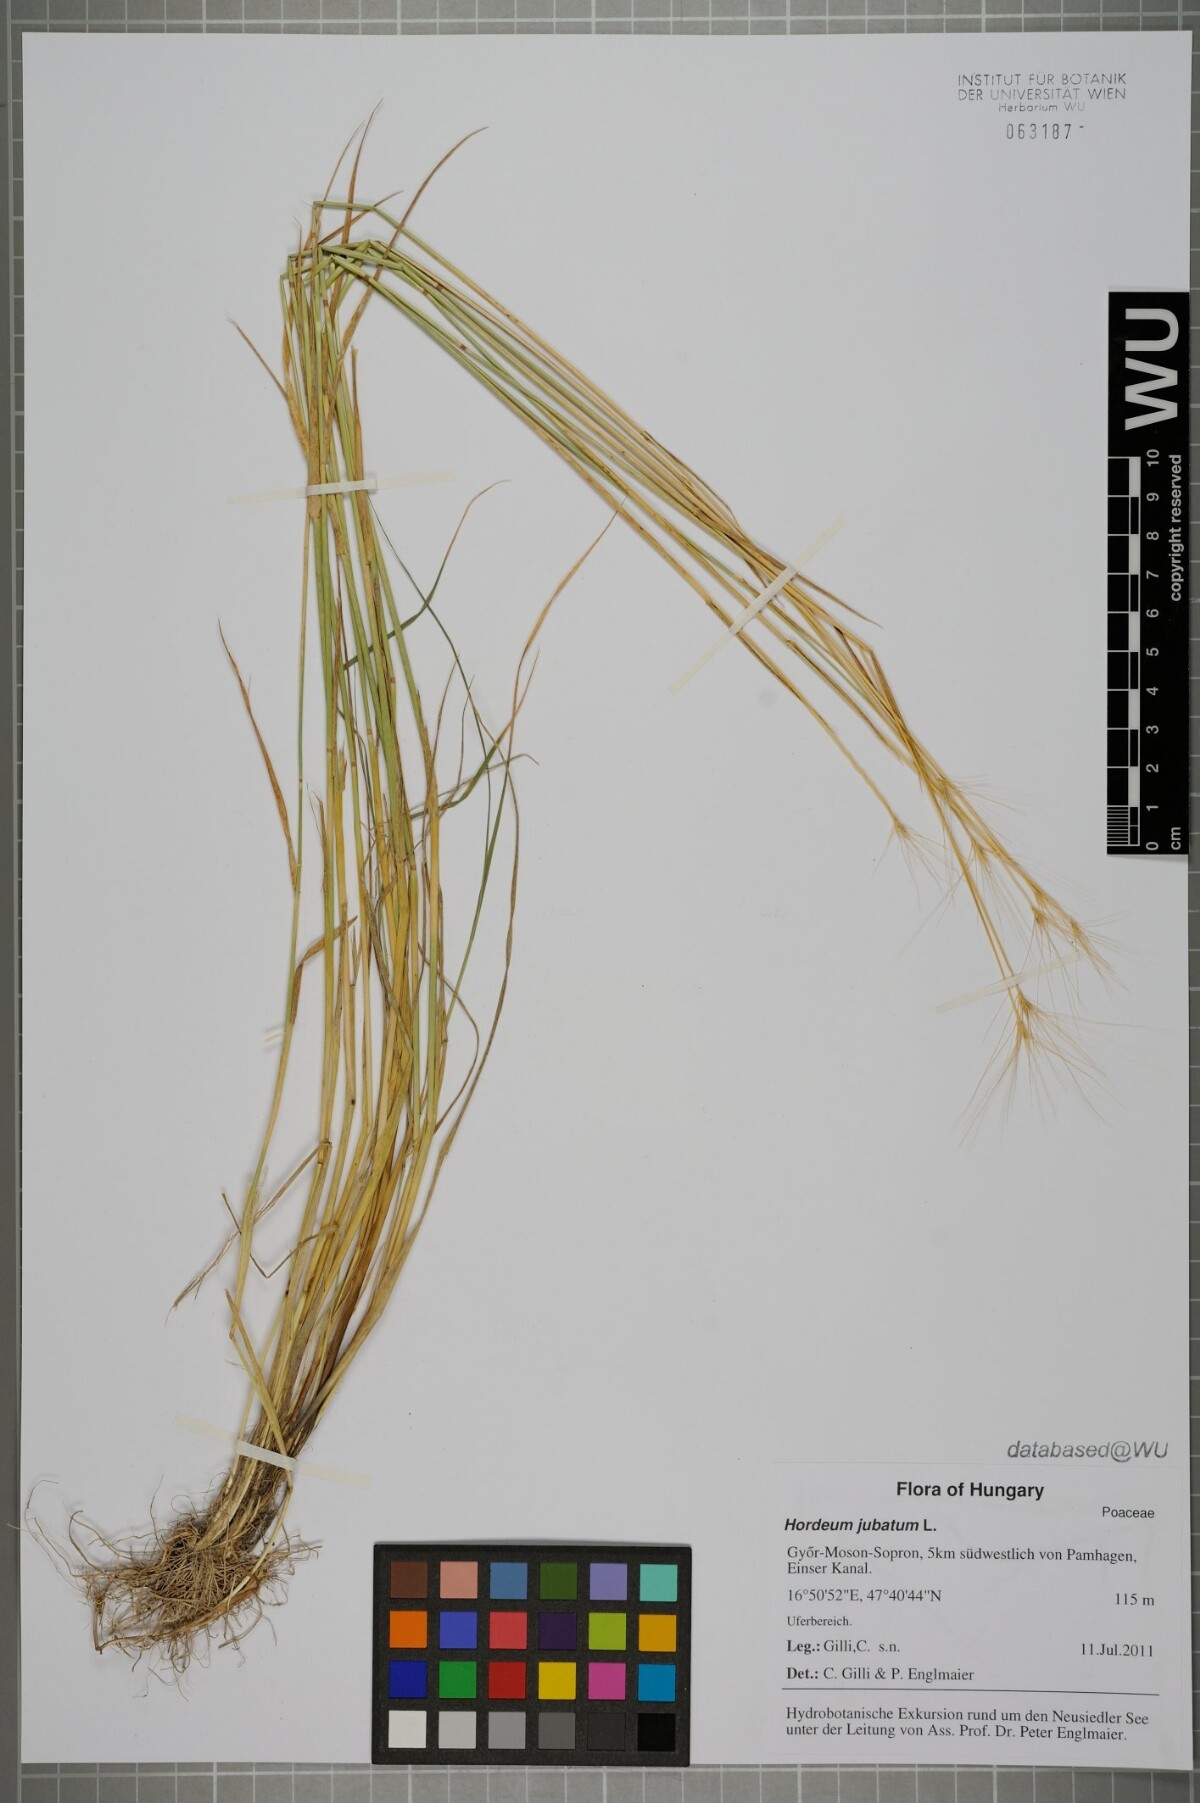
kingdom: Plantae
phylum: Tracheophyta
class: Liliopsida
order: Poales
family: Poaceae
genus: Hordeum
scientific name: Hordeum jubatum
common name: Foxtail barley
